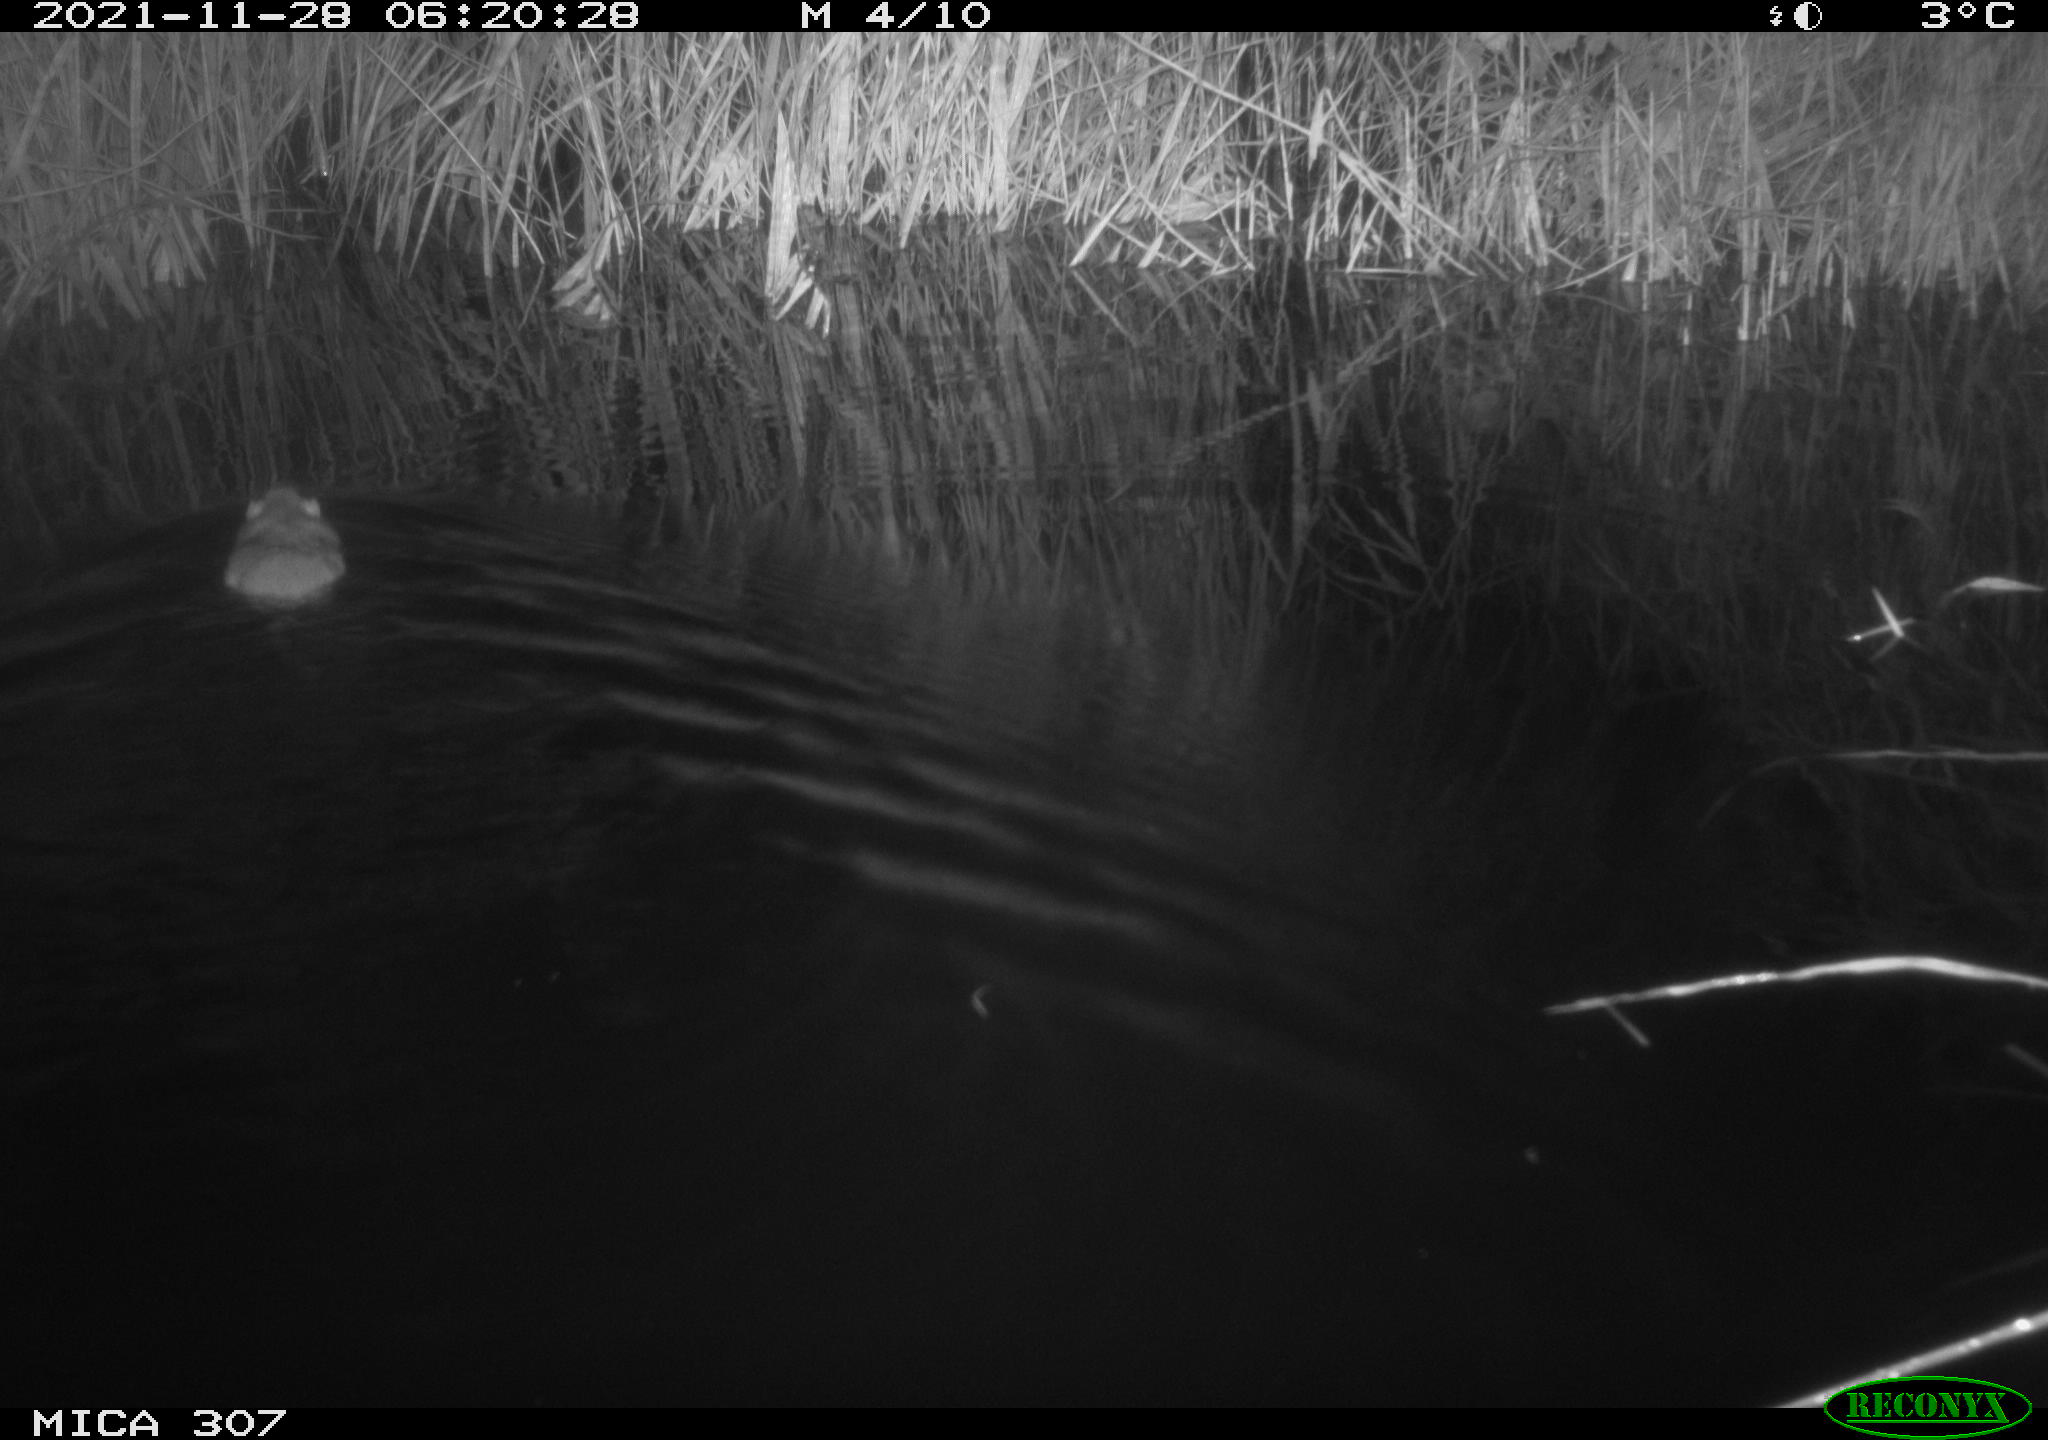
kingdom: Animalia
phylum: Chordata
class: Mammalia
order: Rodentia
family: Muridae
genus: Rattus
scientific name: Rattus norvegicus
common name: Brown rat
